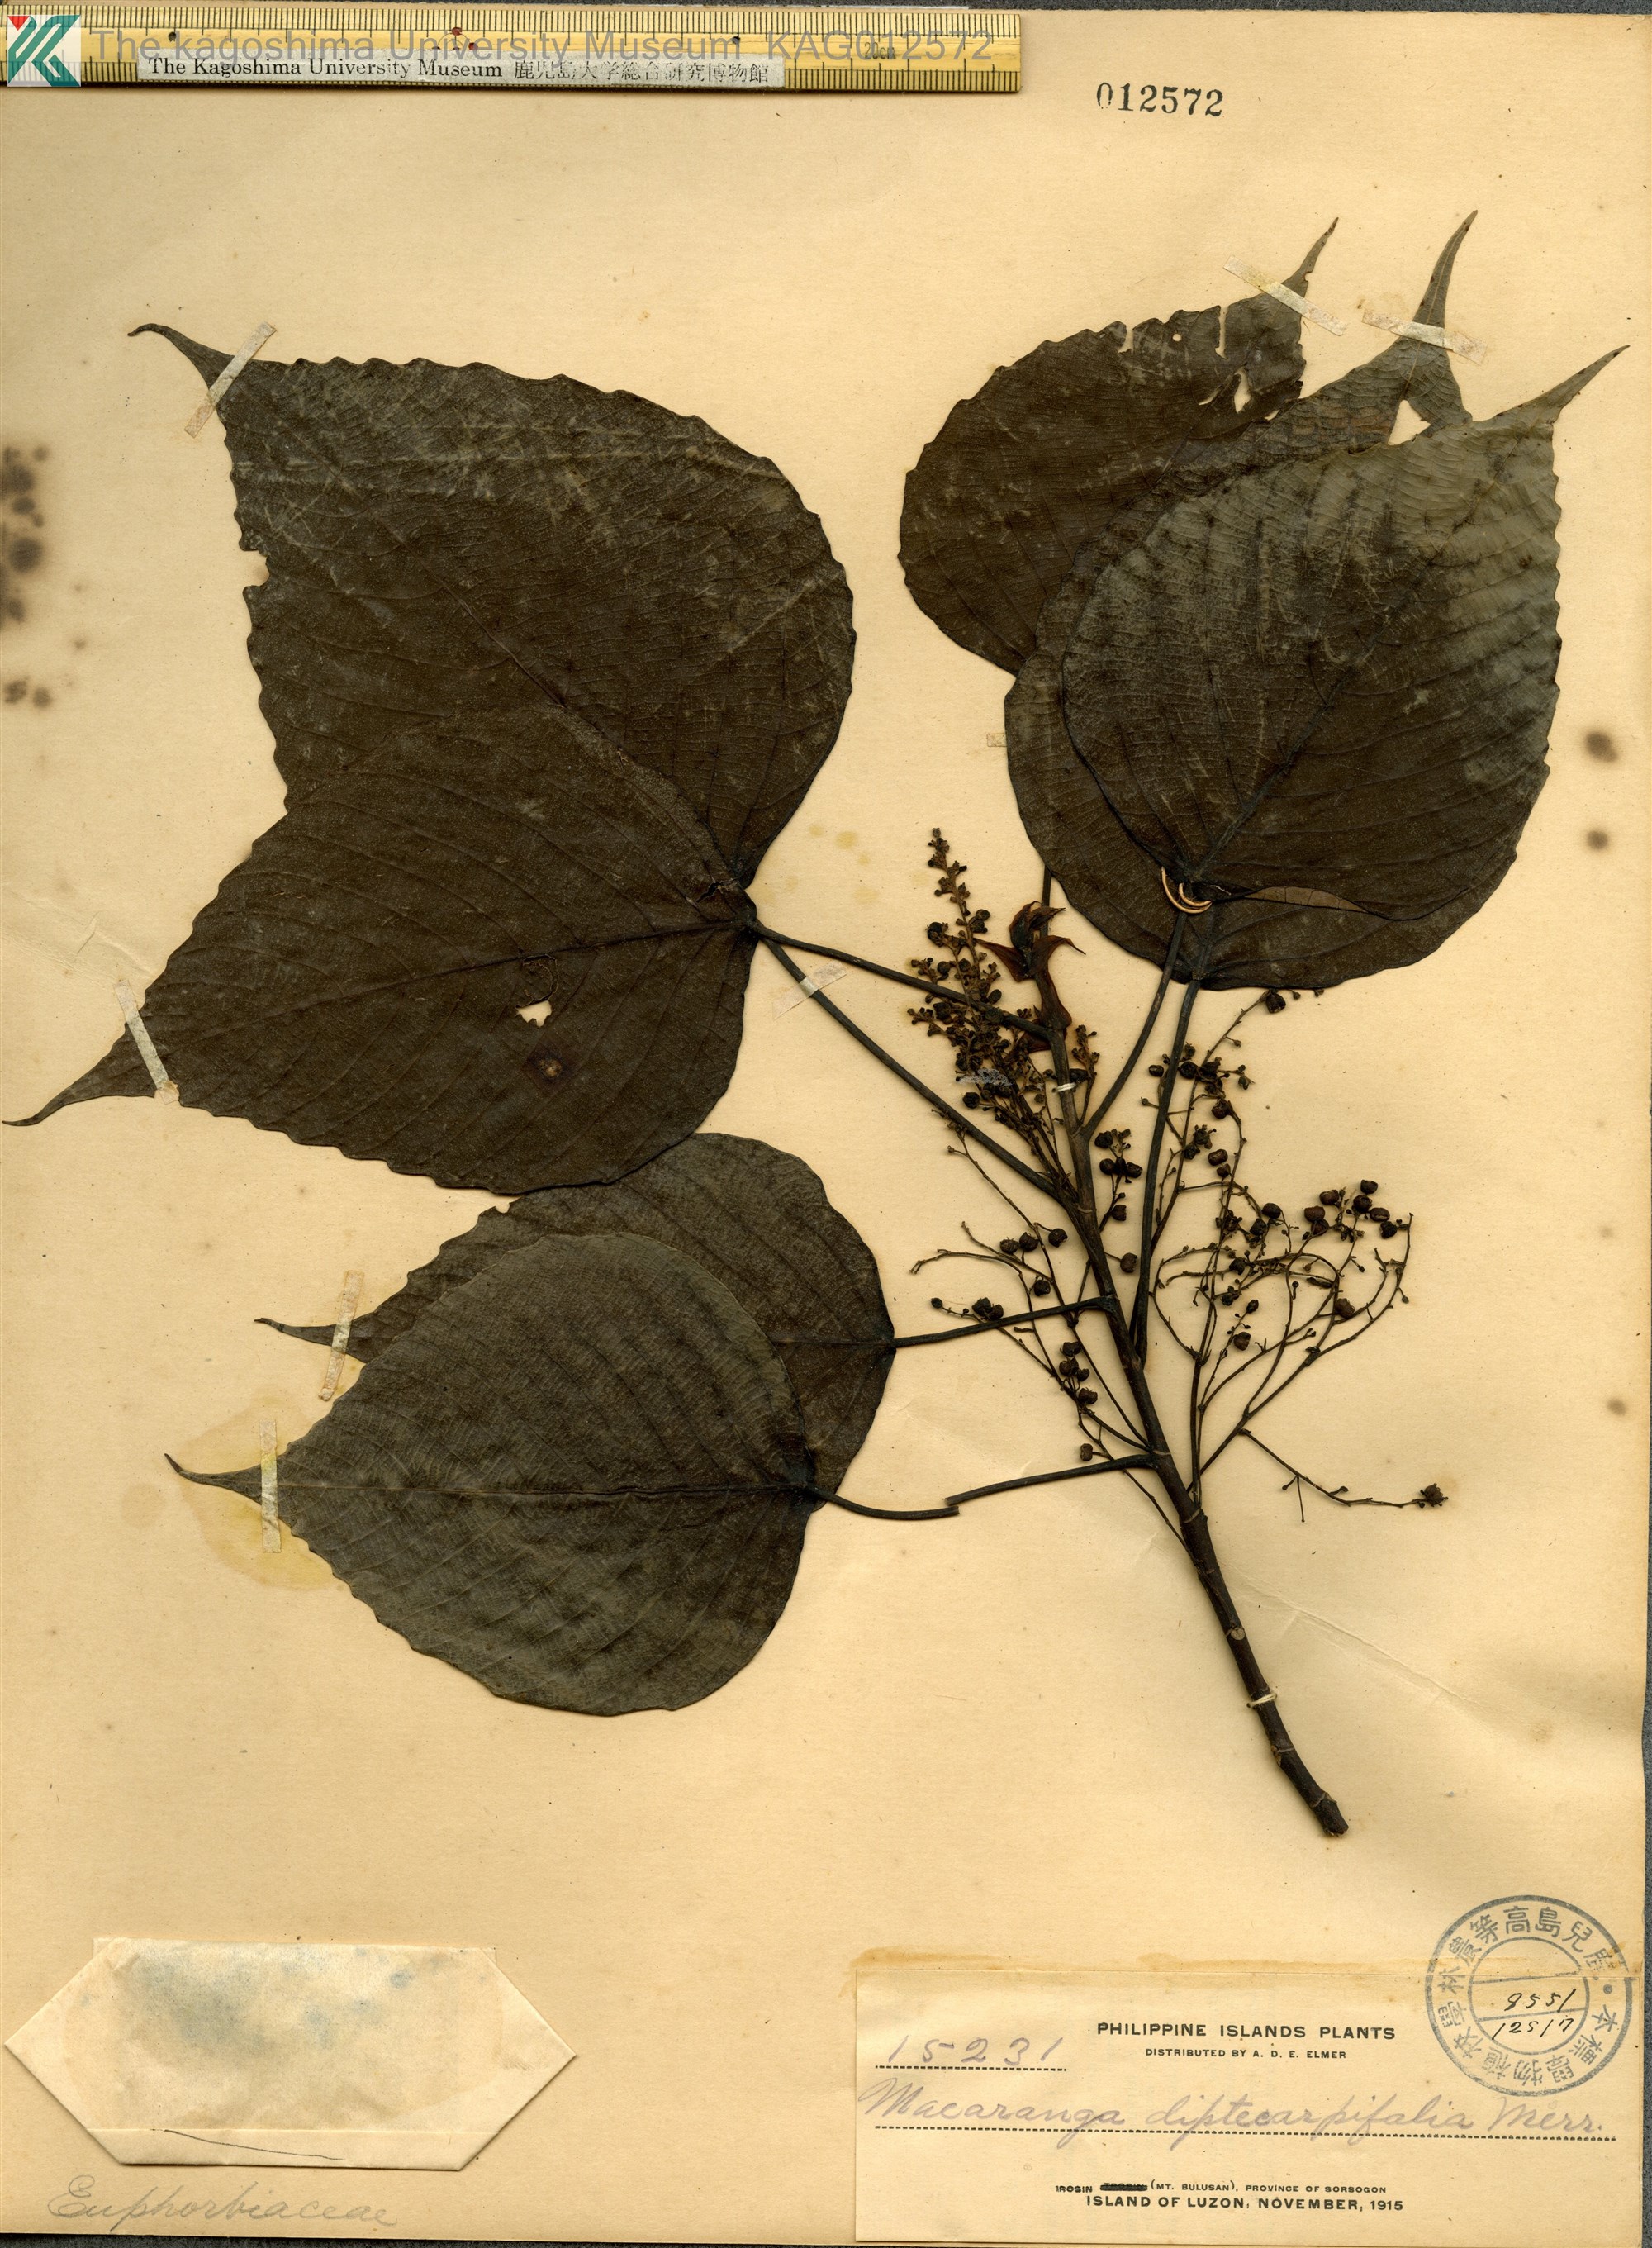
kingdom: Plantae
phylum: Tracheophyta
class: Magnoliopsida
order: Malpighiales
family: Euphorbiaceae
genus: Macaranga
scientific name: Macaranga sinensis
